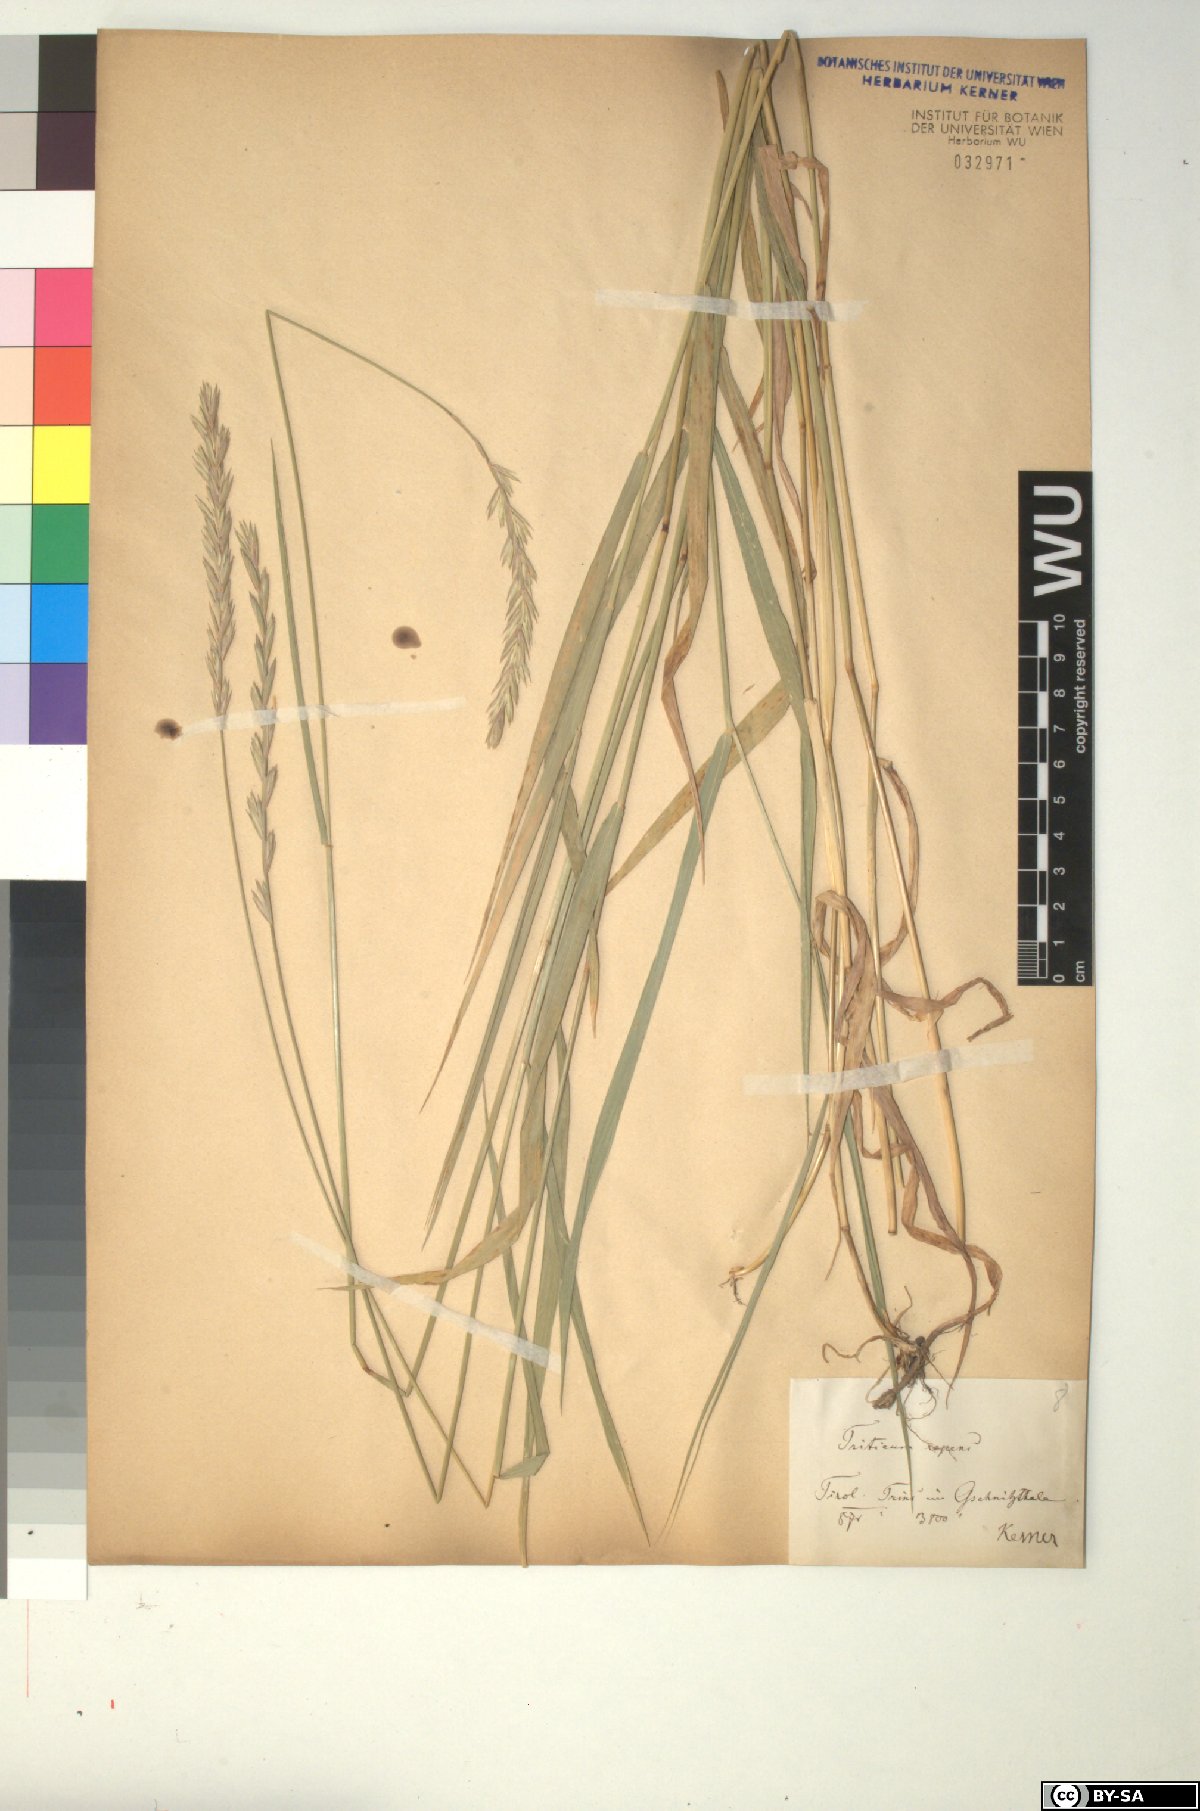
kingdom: Plantae
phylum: Tracheophyta
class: Liliopsida
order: Poales
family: Poaceae
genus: Elymus
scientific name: Elymus repens
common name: Quackgrass
